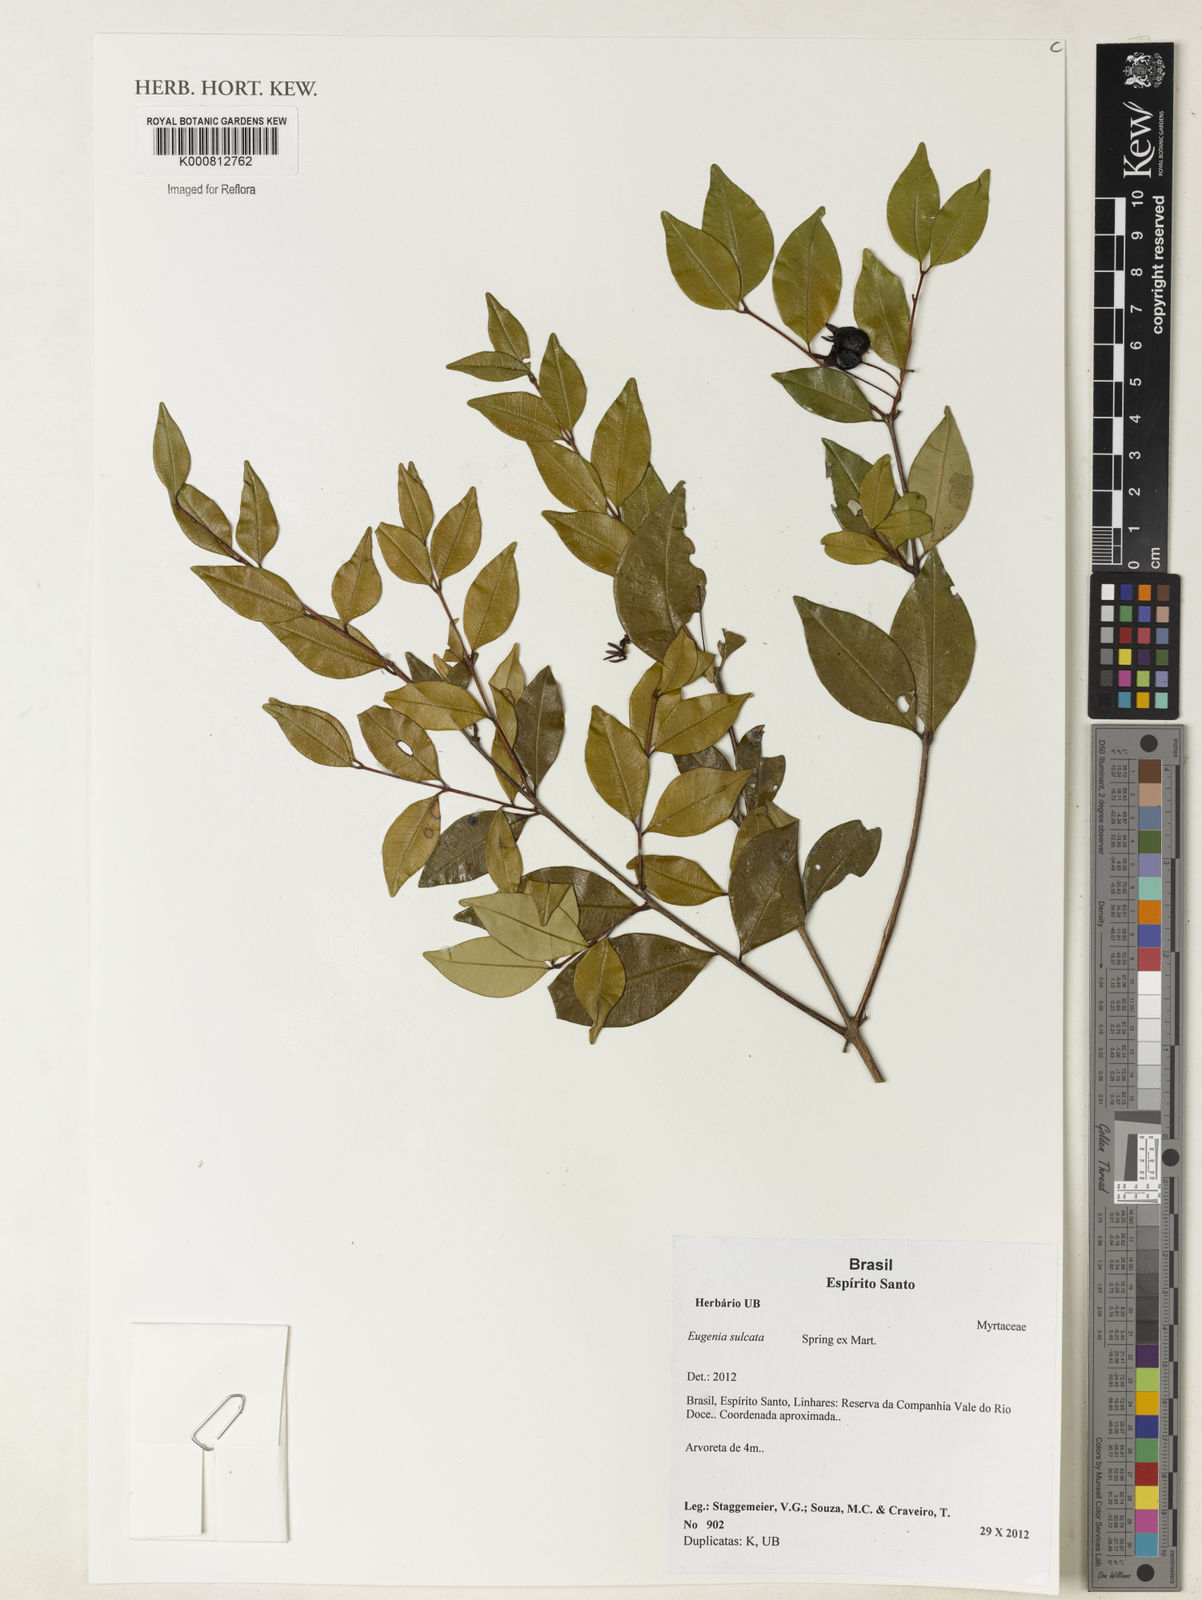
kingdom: Plantae
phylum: Tracheophyta
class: Magnoliopsida
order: Myrtales
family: Myrtaceae
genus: Eugenia
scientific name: Eugenia sulcata
